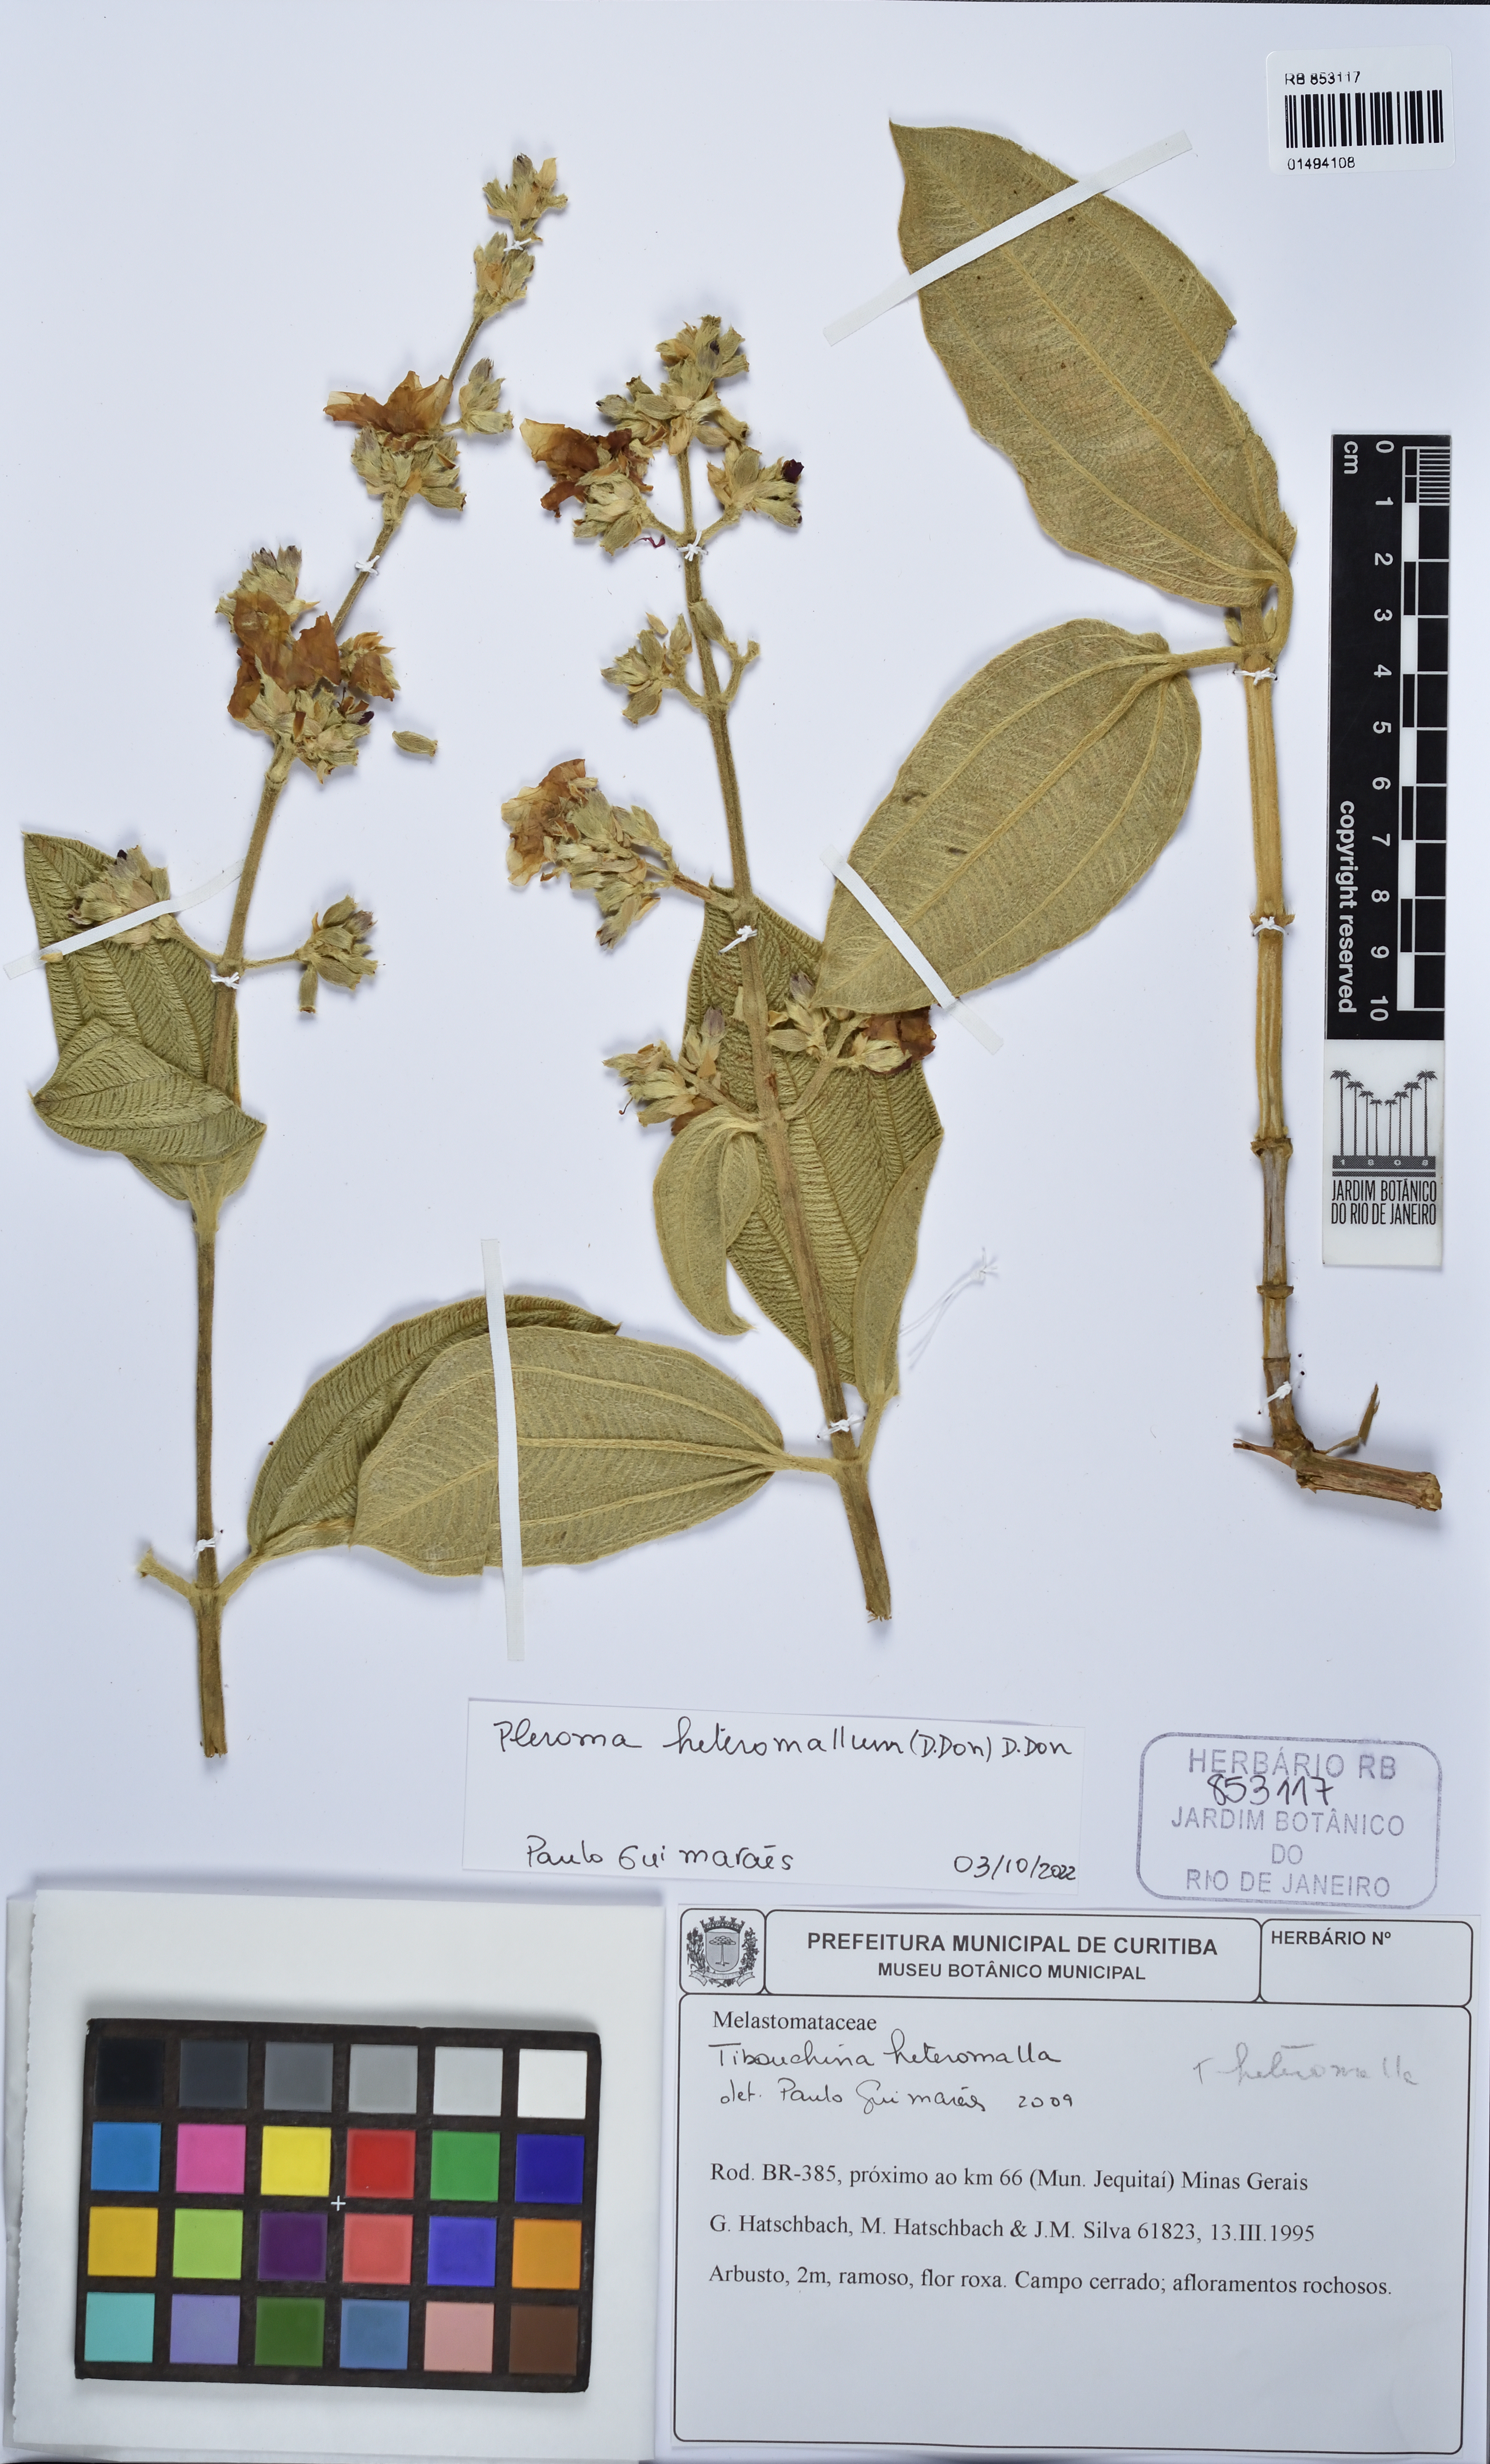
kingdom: Plantae
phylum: Tracheophyta
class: Magnoliopsida
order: Myrtales
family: Melastomataceae
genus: Pleroma
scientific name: Pleroma heteromallum
